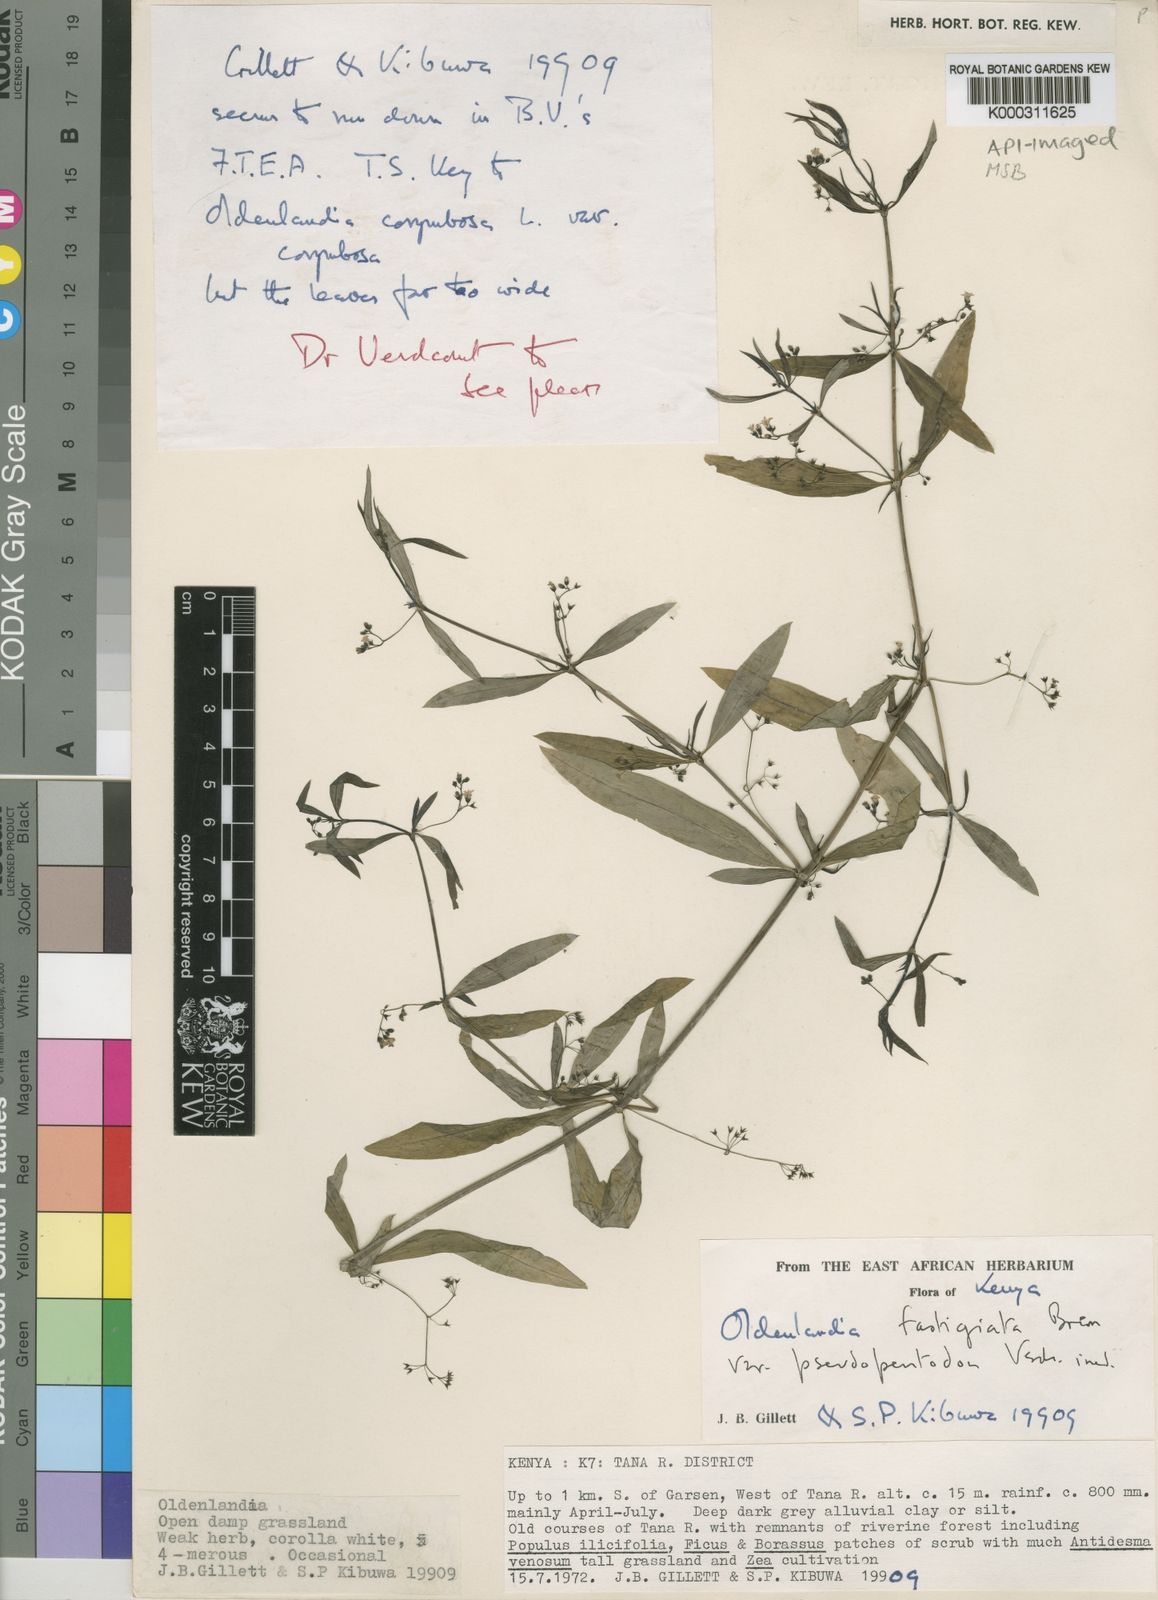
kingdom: Plantae
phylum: Tracheophyta
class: Magnoliopsida
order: Gentianales
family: Rubiaceae
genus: Oldenlandia
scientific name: Oldenlandia fastigiata
